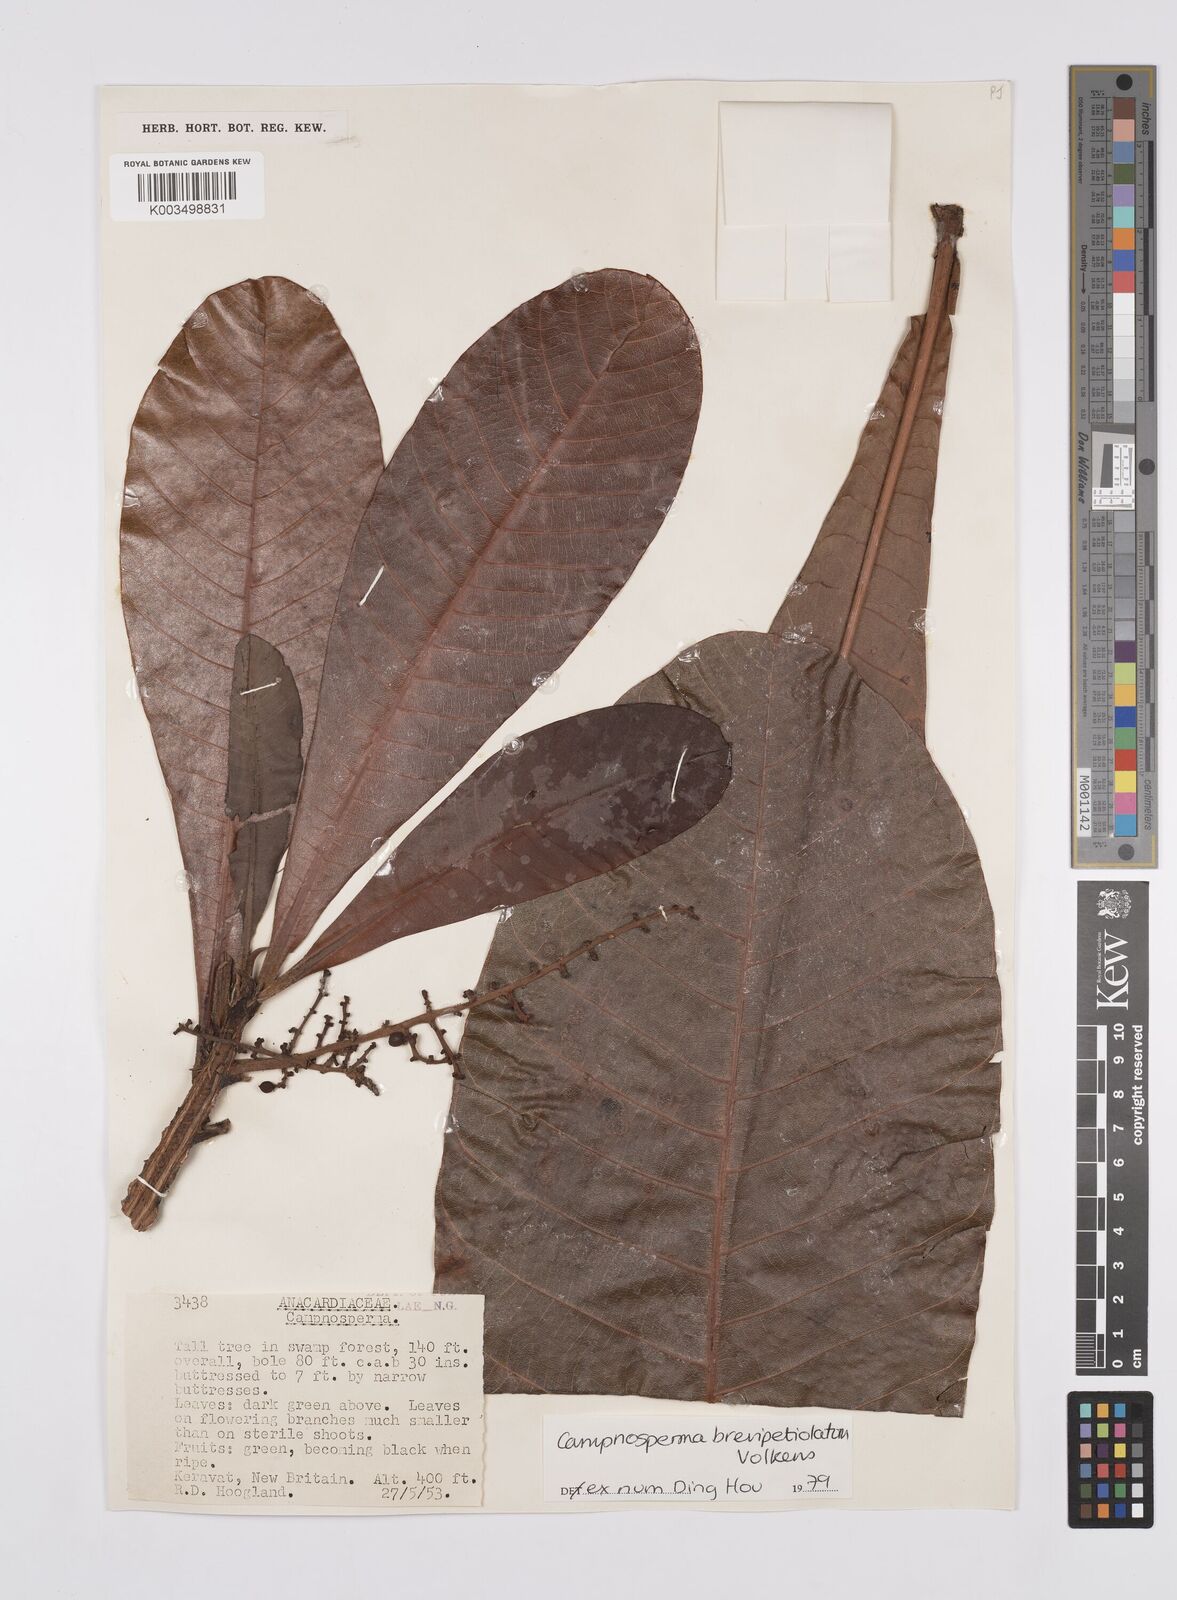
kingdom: Plantae
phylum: Tracheophyta
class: Magnoliopsida
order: Sapindales
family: Anacardiaceae
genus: Campnosperma
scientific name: Campnosperma brevipetiolatum
